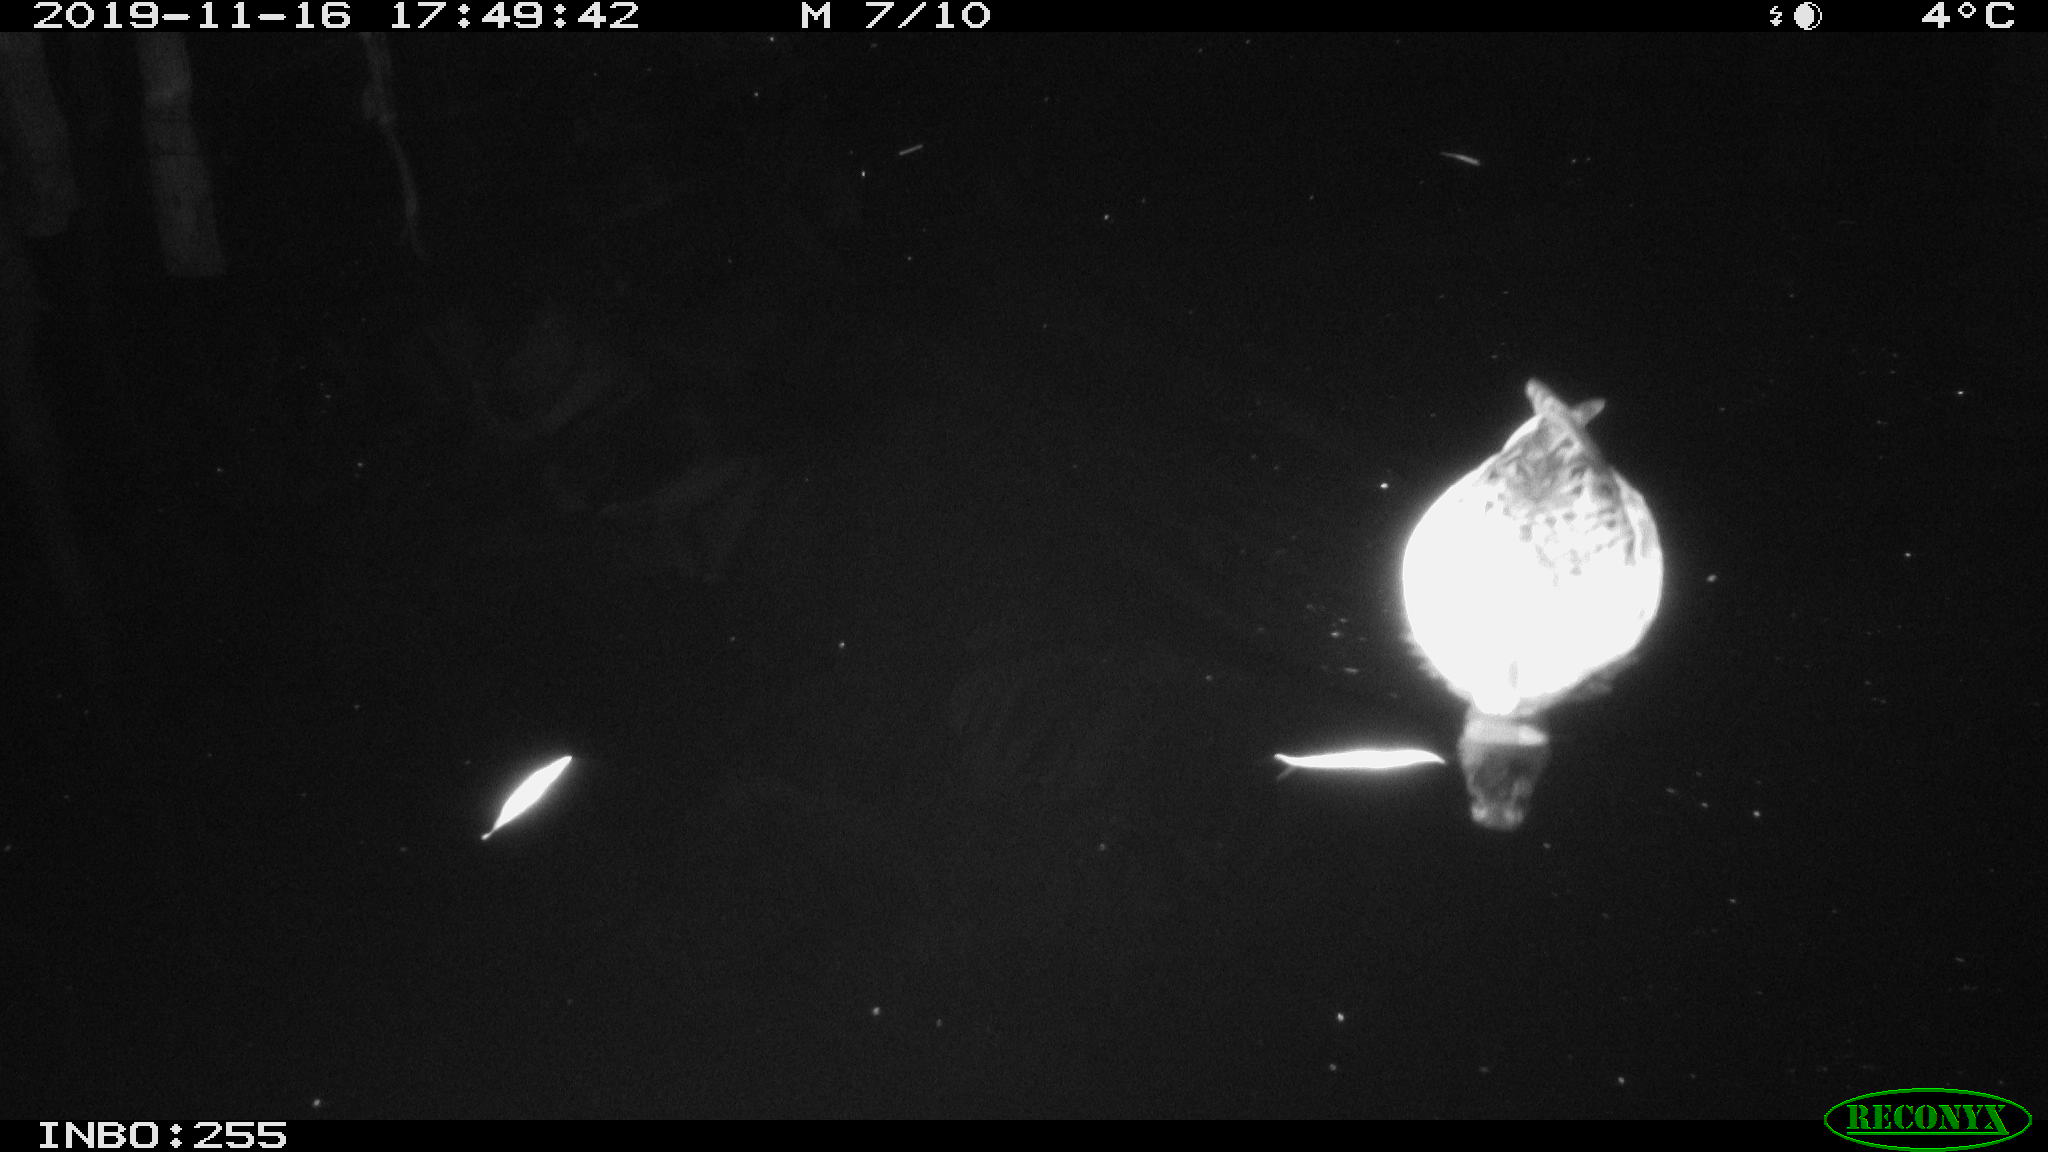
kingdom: Animalia
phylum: Chordata
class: Aves
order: Anseriformes
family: Anatidae
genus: Anas
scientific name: Anas platyrhynchos
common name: Mallard
